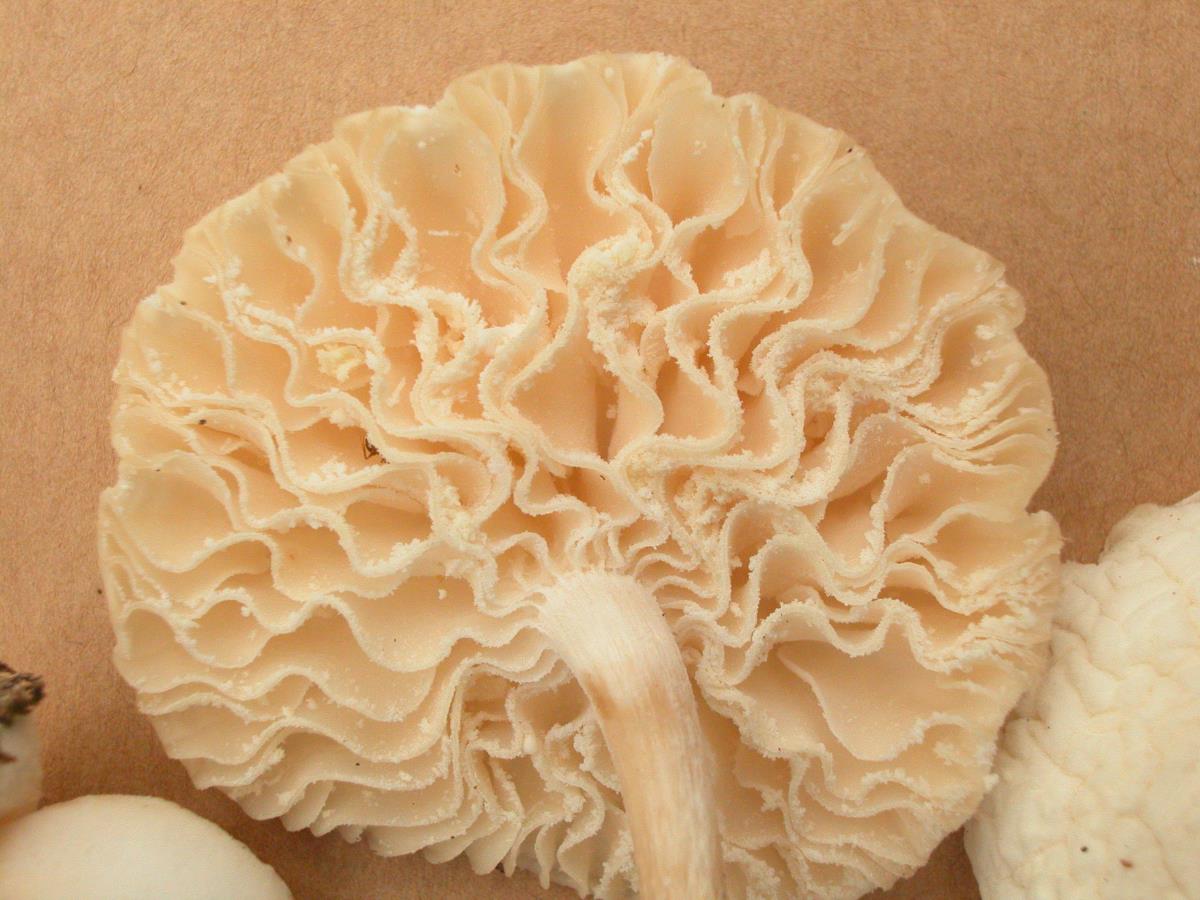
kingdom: Fungi
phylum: Basidiomycota
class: Agaricomycetes
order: Agaricales
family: Physalacriaceae
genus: Oudemansiella
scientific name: Oudemansiella canarii
